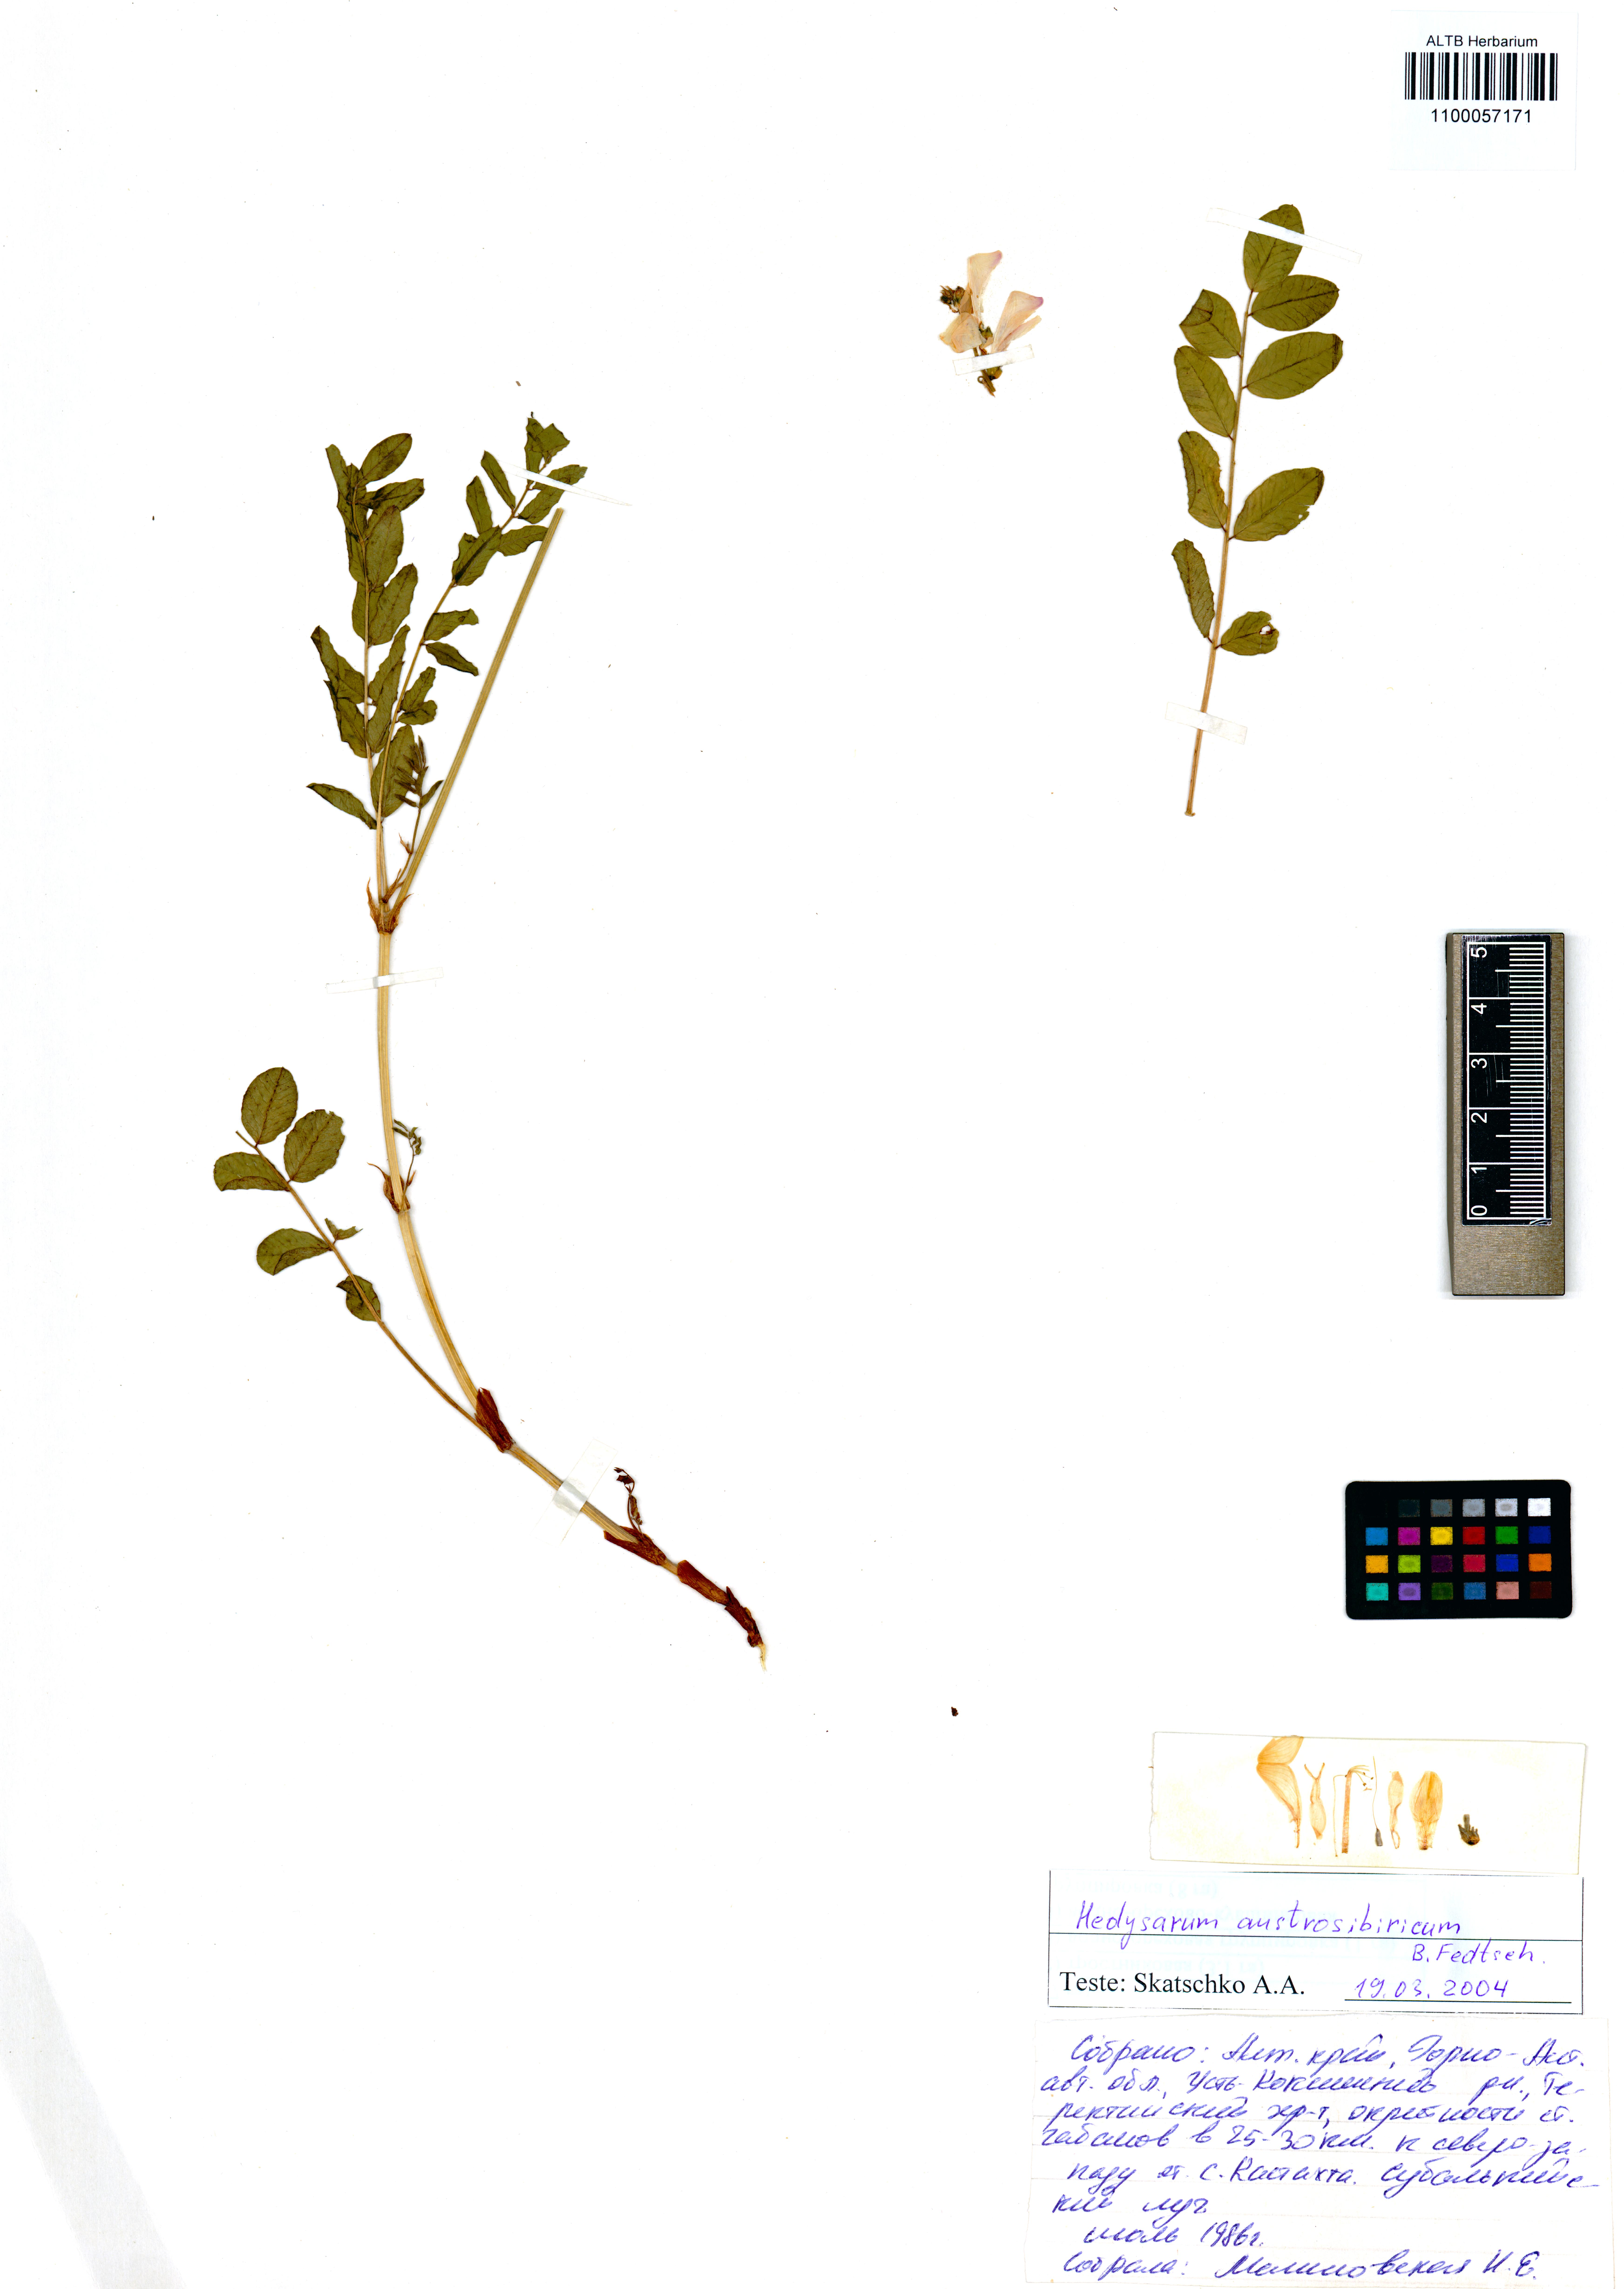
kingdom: Plantae
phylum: Tracheophyta
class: Magnoliopsida
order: Fabales
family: Fabaceae
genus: Hedysarum
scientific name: Hedysarum neglectum
